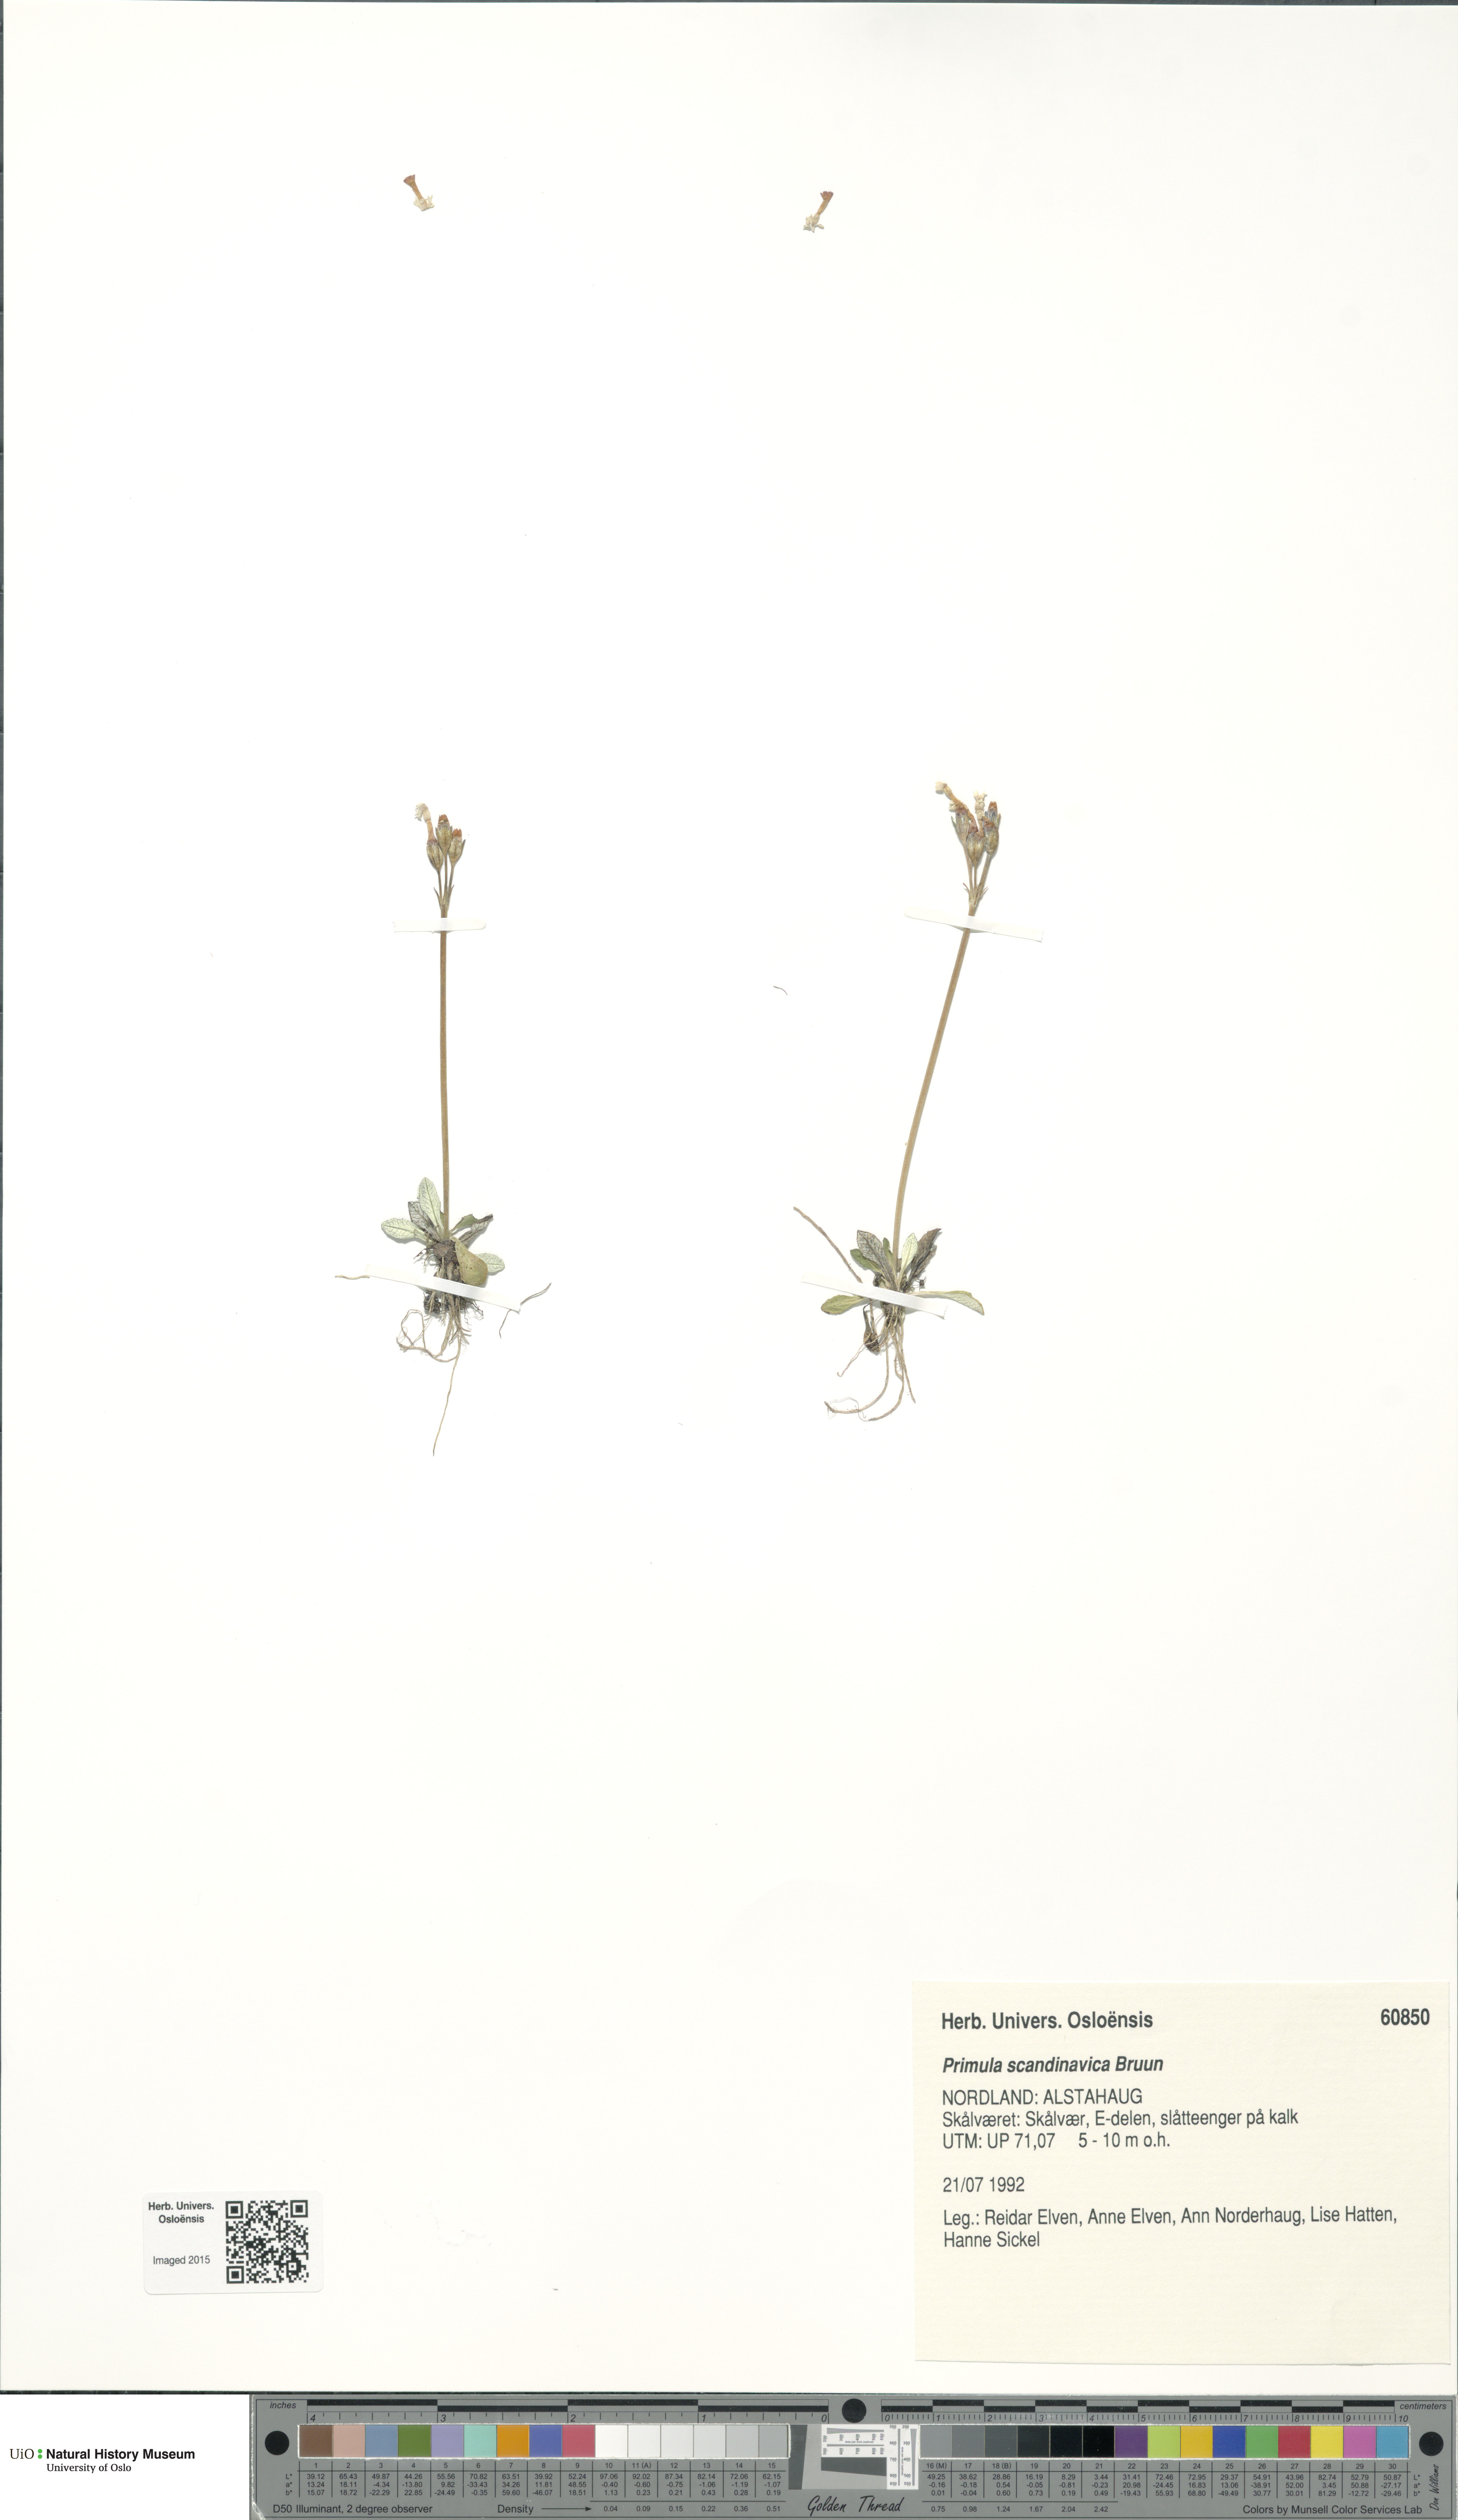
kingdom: Plantae
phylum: Tracheophyta
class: Magnoliopsida
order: Ericales
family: Primulaceae
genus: Primula
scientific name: Primula scandinavica
